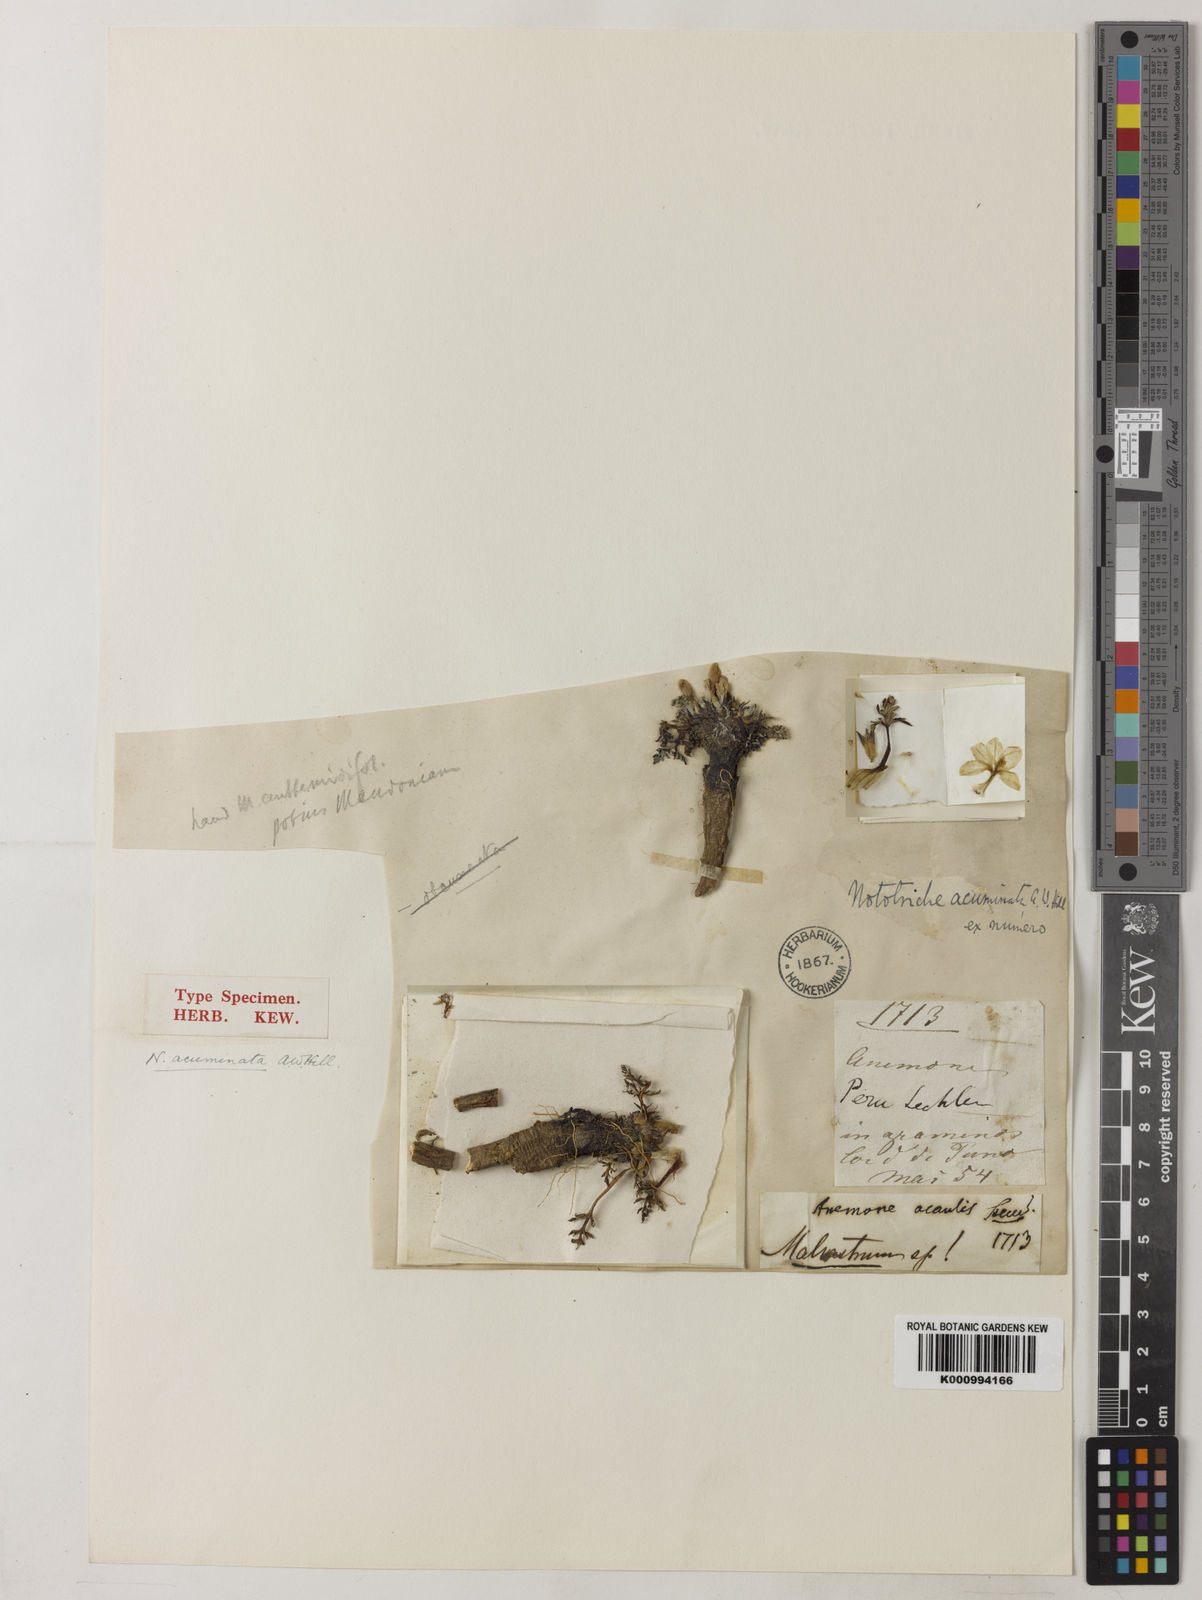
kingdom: Plantae
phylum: Tracheophyta
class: Magnoliopsida
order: Malvales
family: Malvaceae
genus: Nototriche
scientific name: Nototriche argentea
